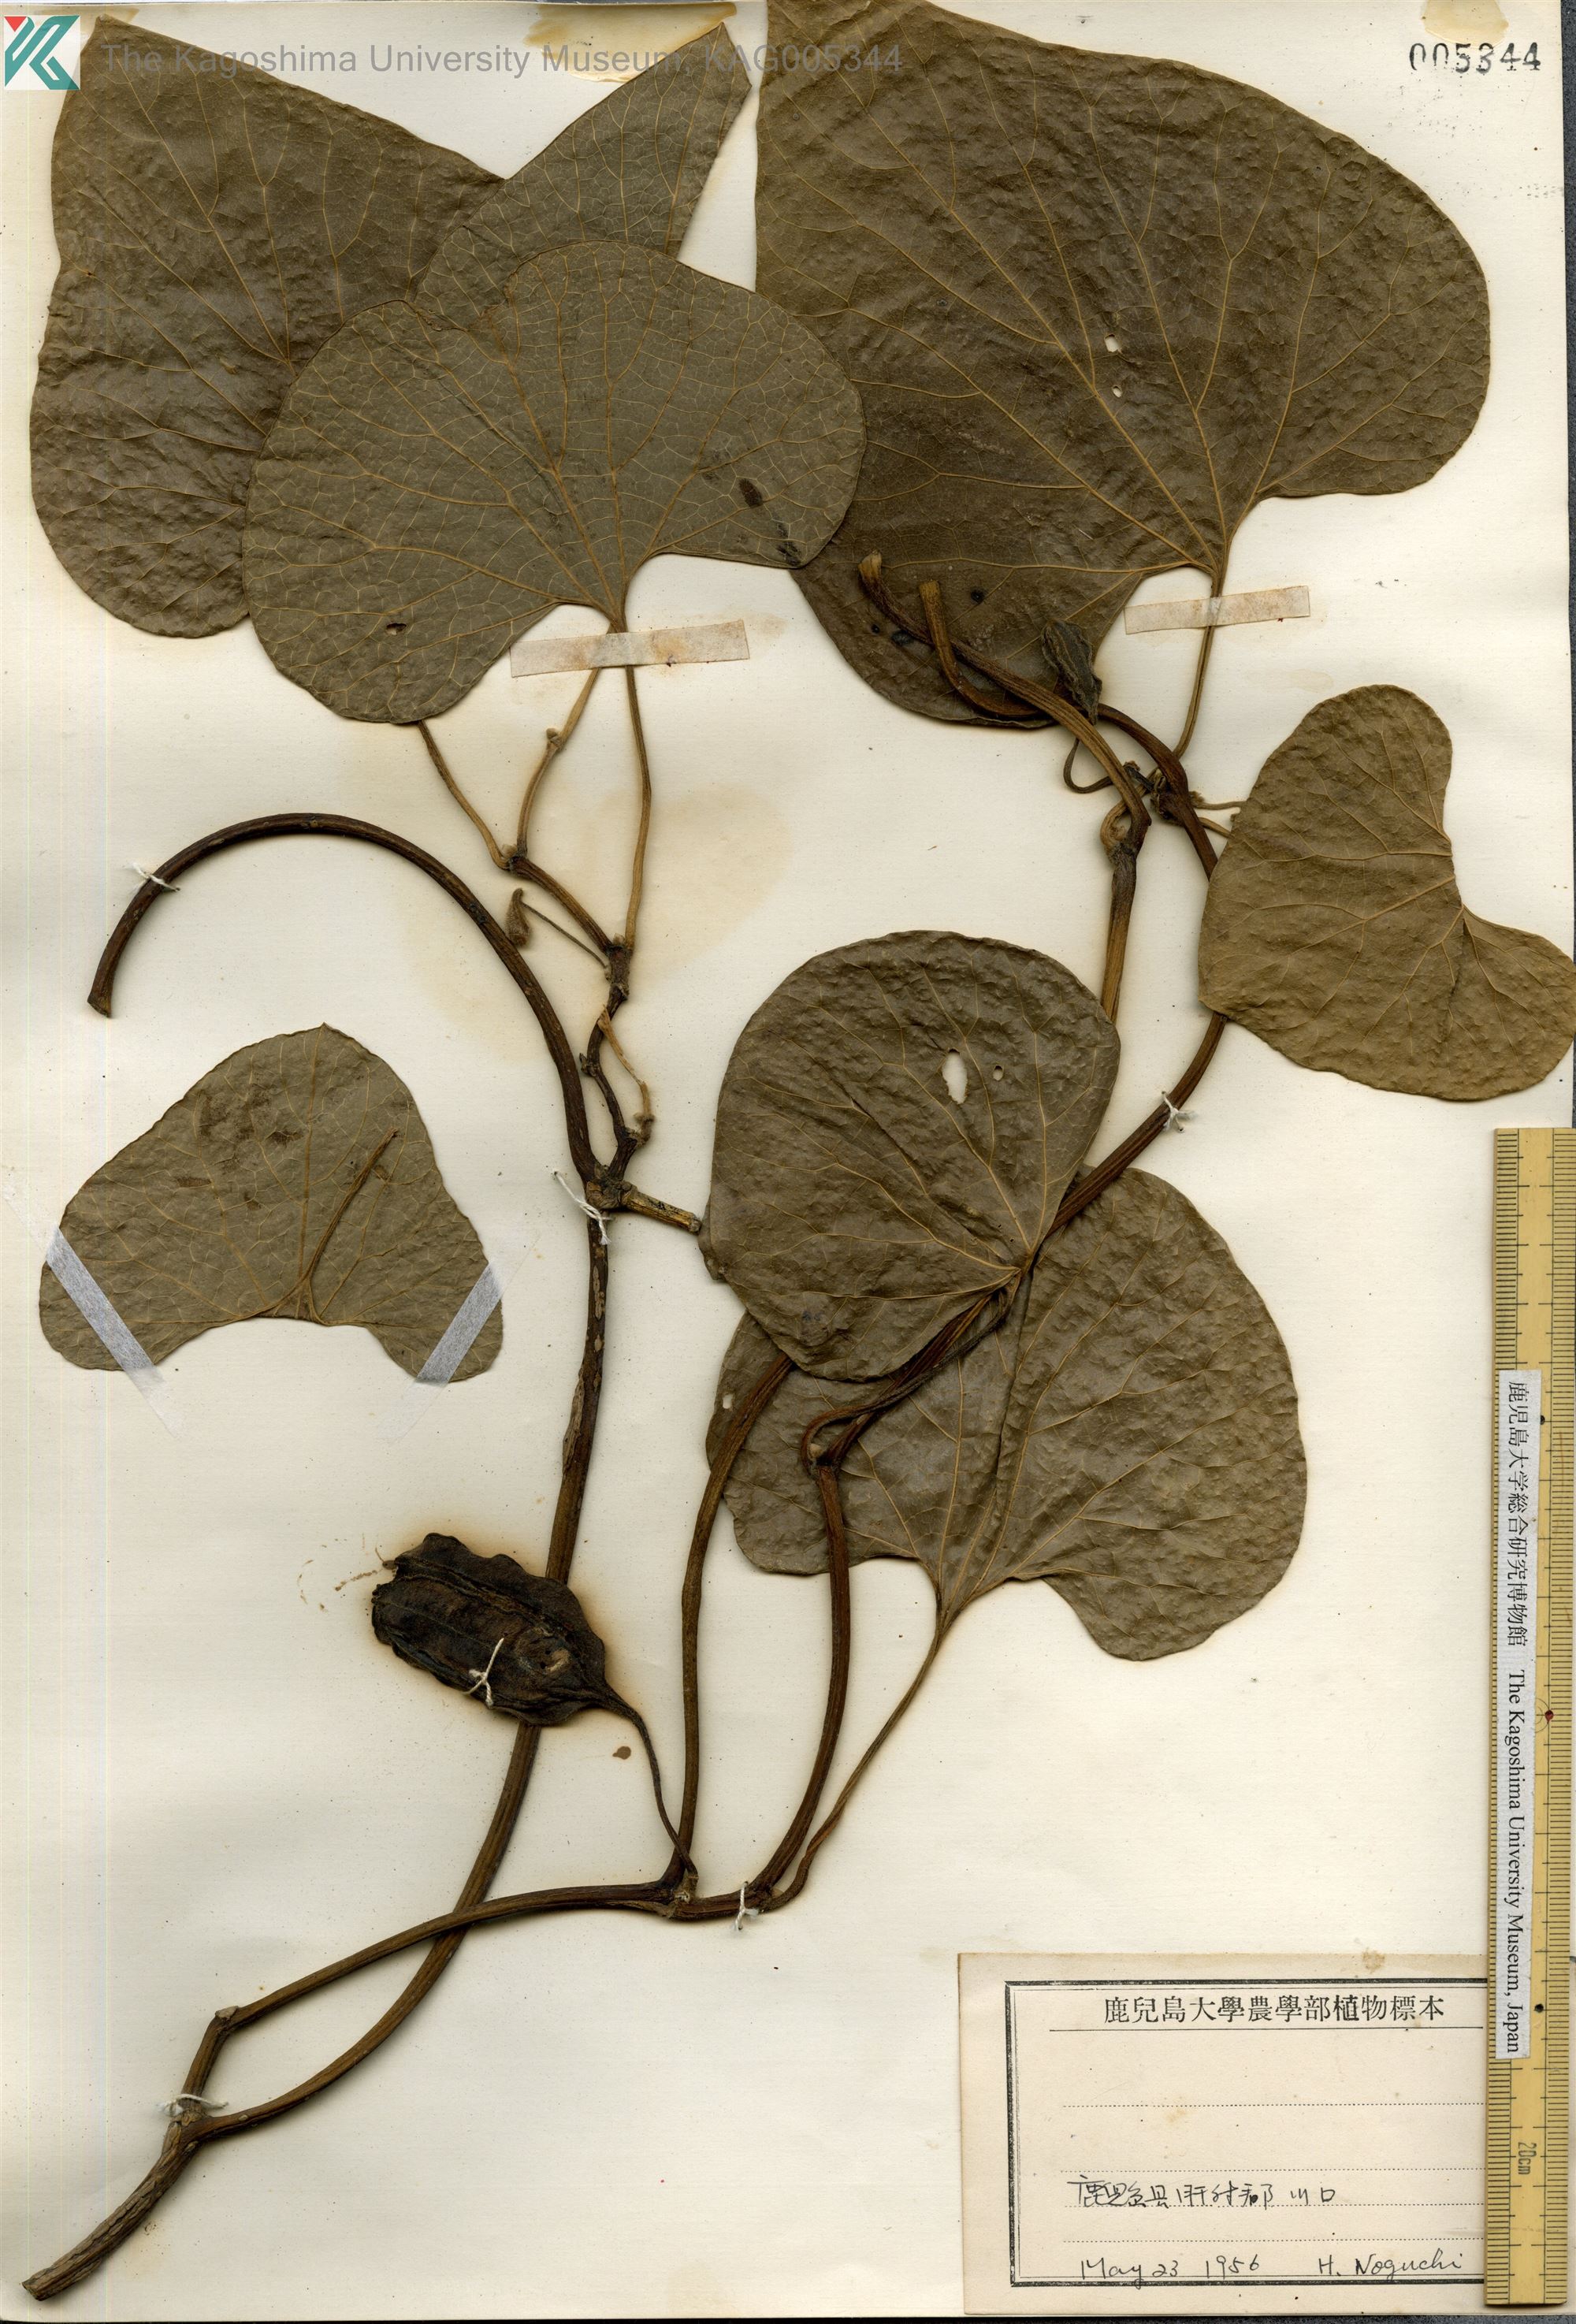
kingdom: Plantae
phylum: Tracheophyta
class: Magnoliopsida
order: Piperales
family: Aristolochiaceae
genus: Isotrema
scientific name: Isotrema kaempferi
